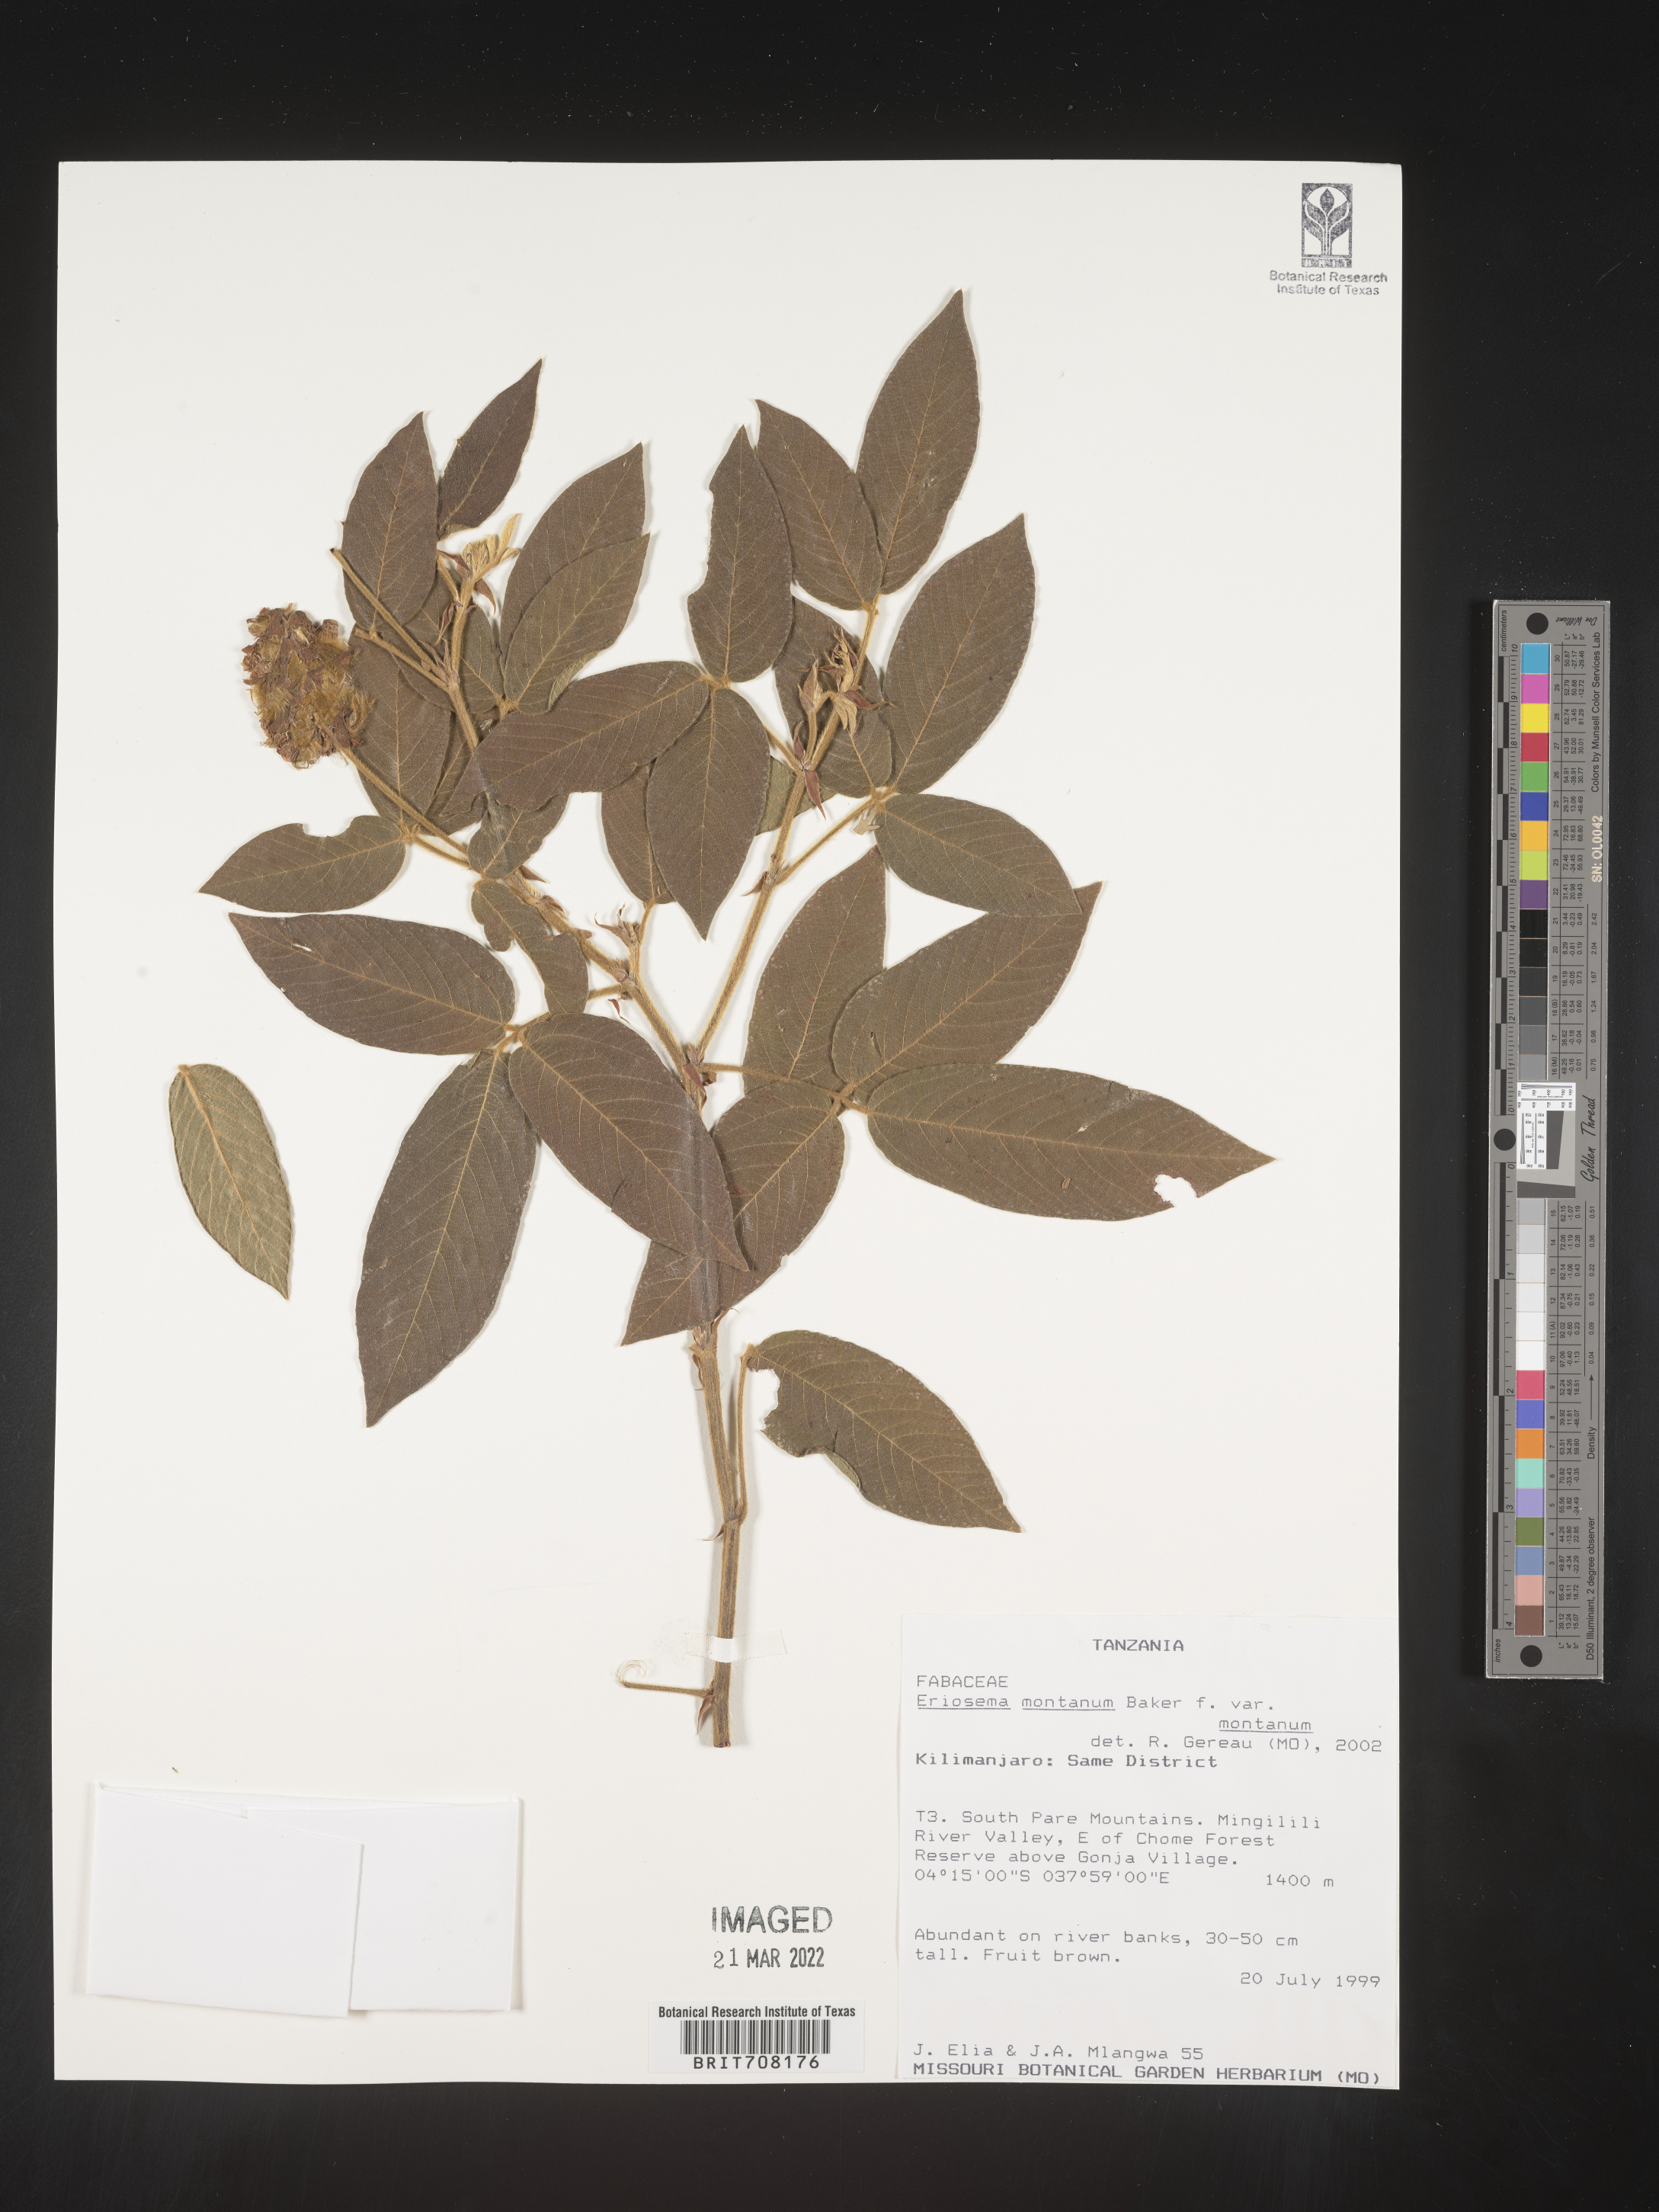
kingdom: Plantae
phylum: Tracheophyta
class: Magnoliopsida
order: Fabales
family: Fabaceae
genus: Eriosema
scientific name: Eriosema
